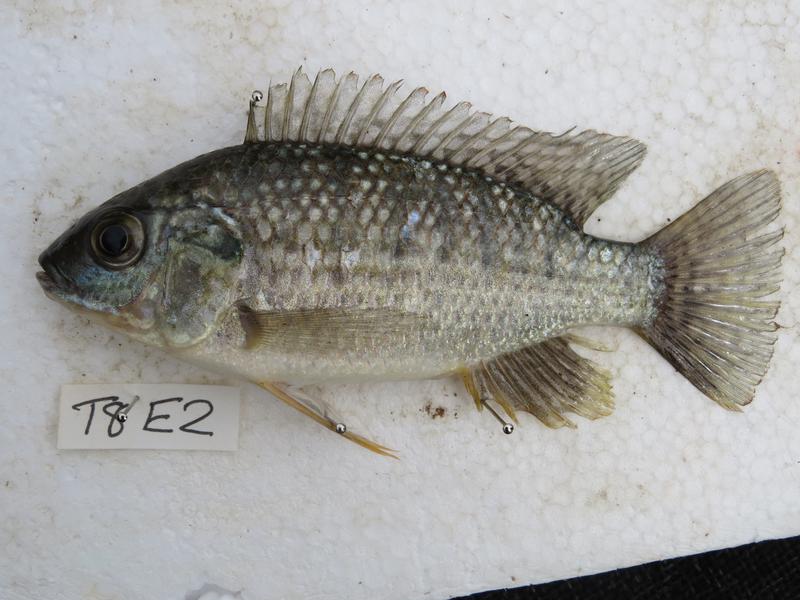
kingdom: Animalia
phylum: Chordata
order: Perciformes
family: Cichlidae
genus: Oreochromis
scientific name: Oreochromis leucostictus
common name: Blue spotted tilapia
